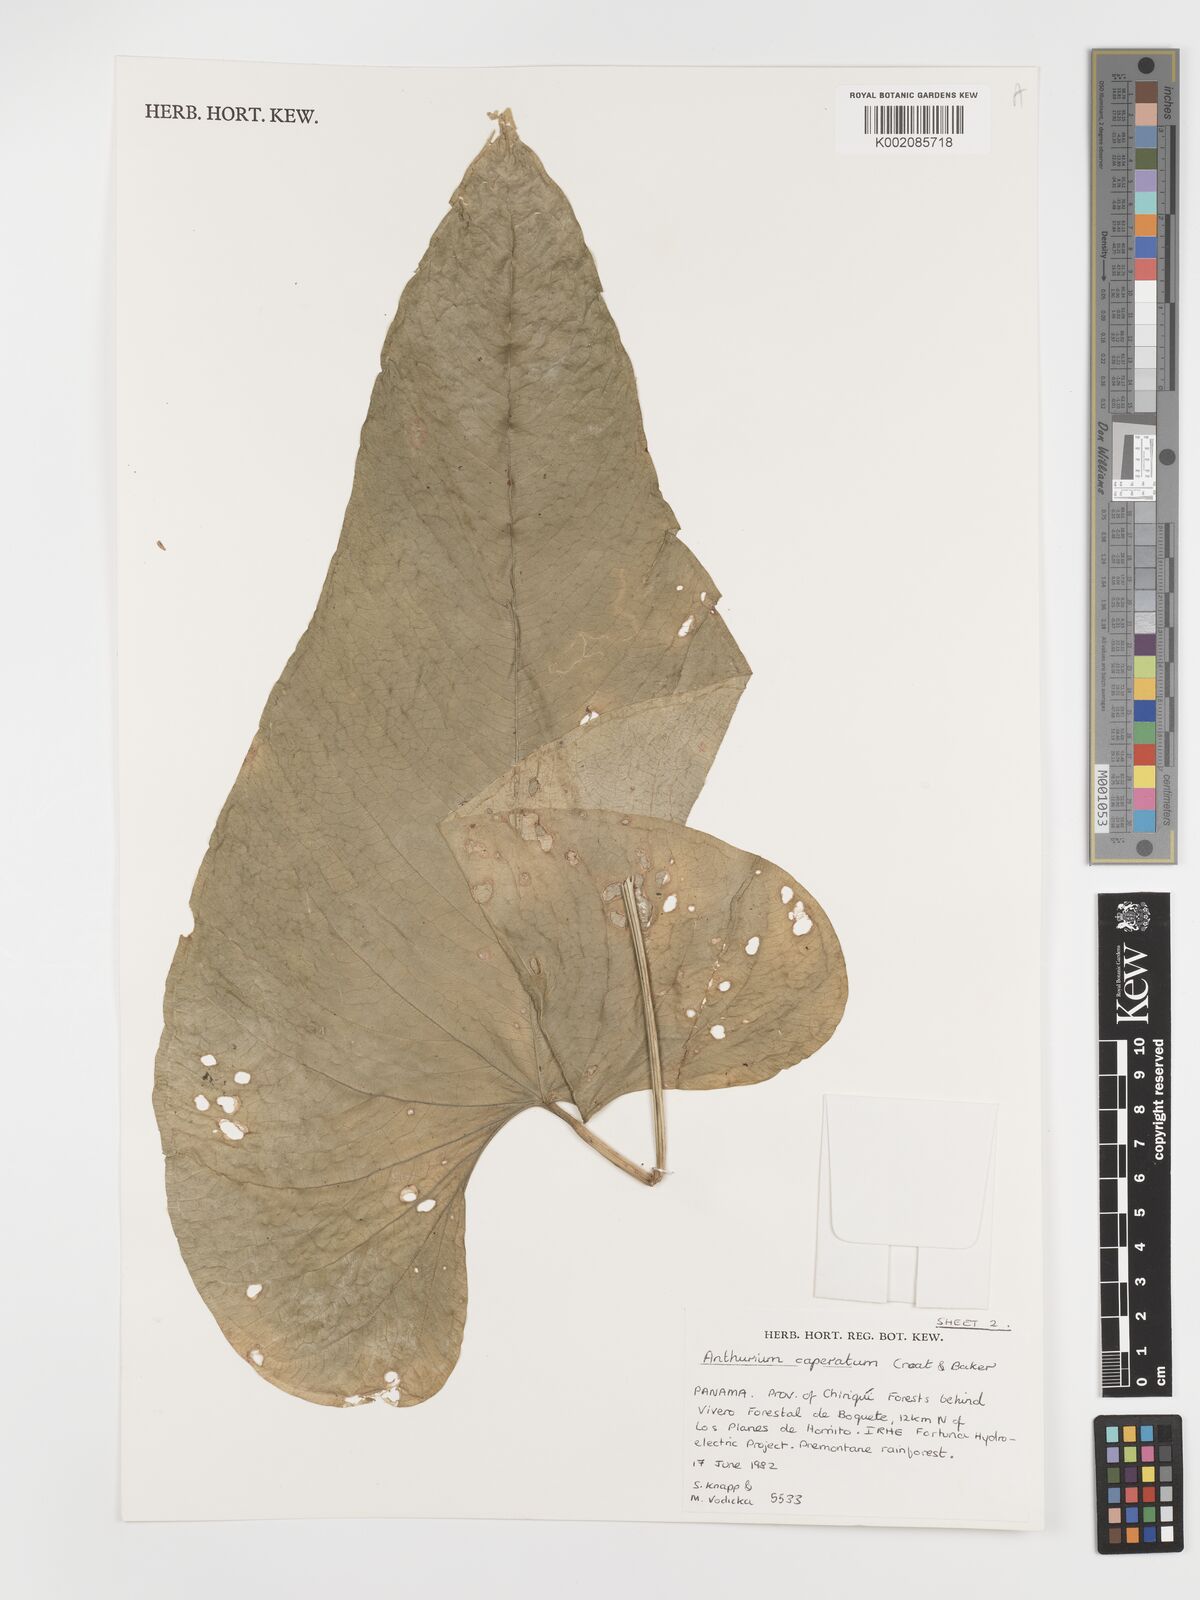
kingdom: Plantae
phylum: Tracheophyta
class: Liliopsida
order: Alismatales
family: Araceae
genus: Anthurium
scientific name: Anthurium caperatum
